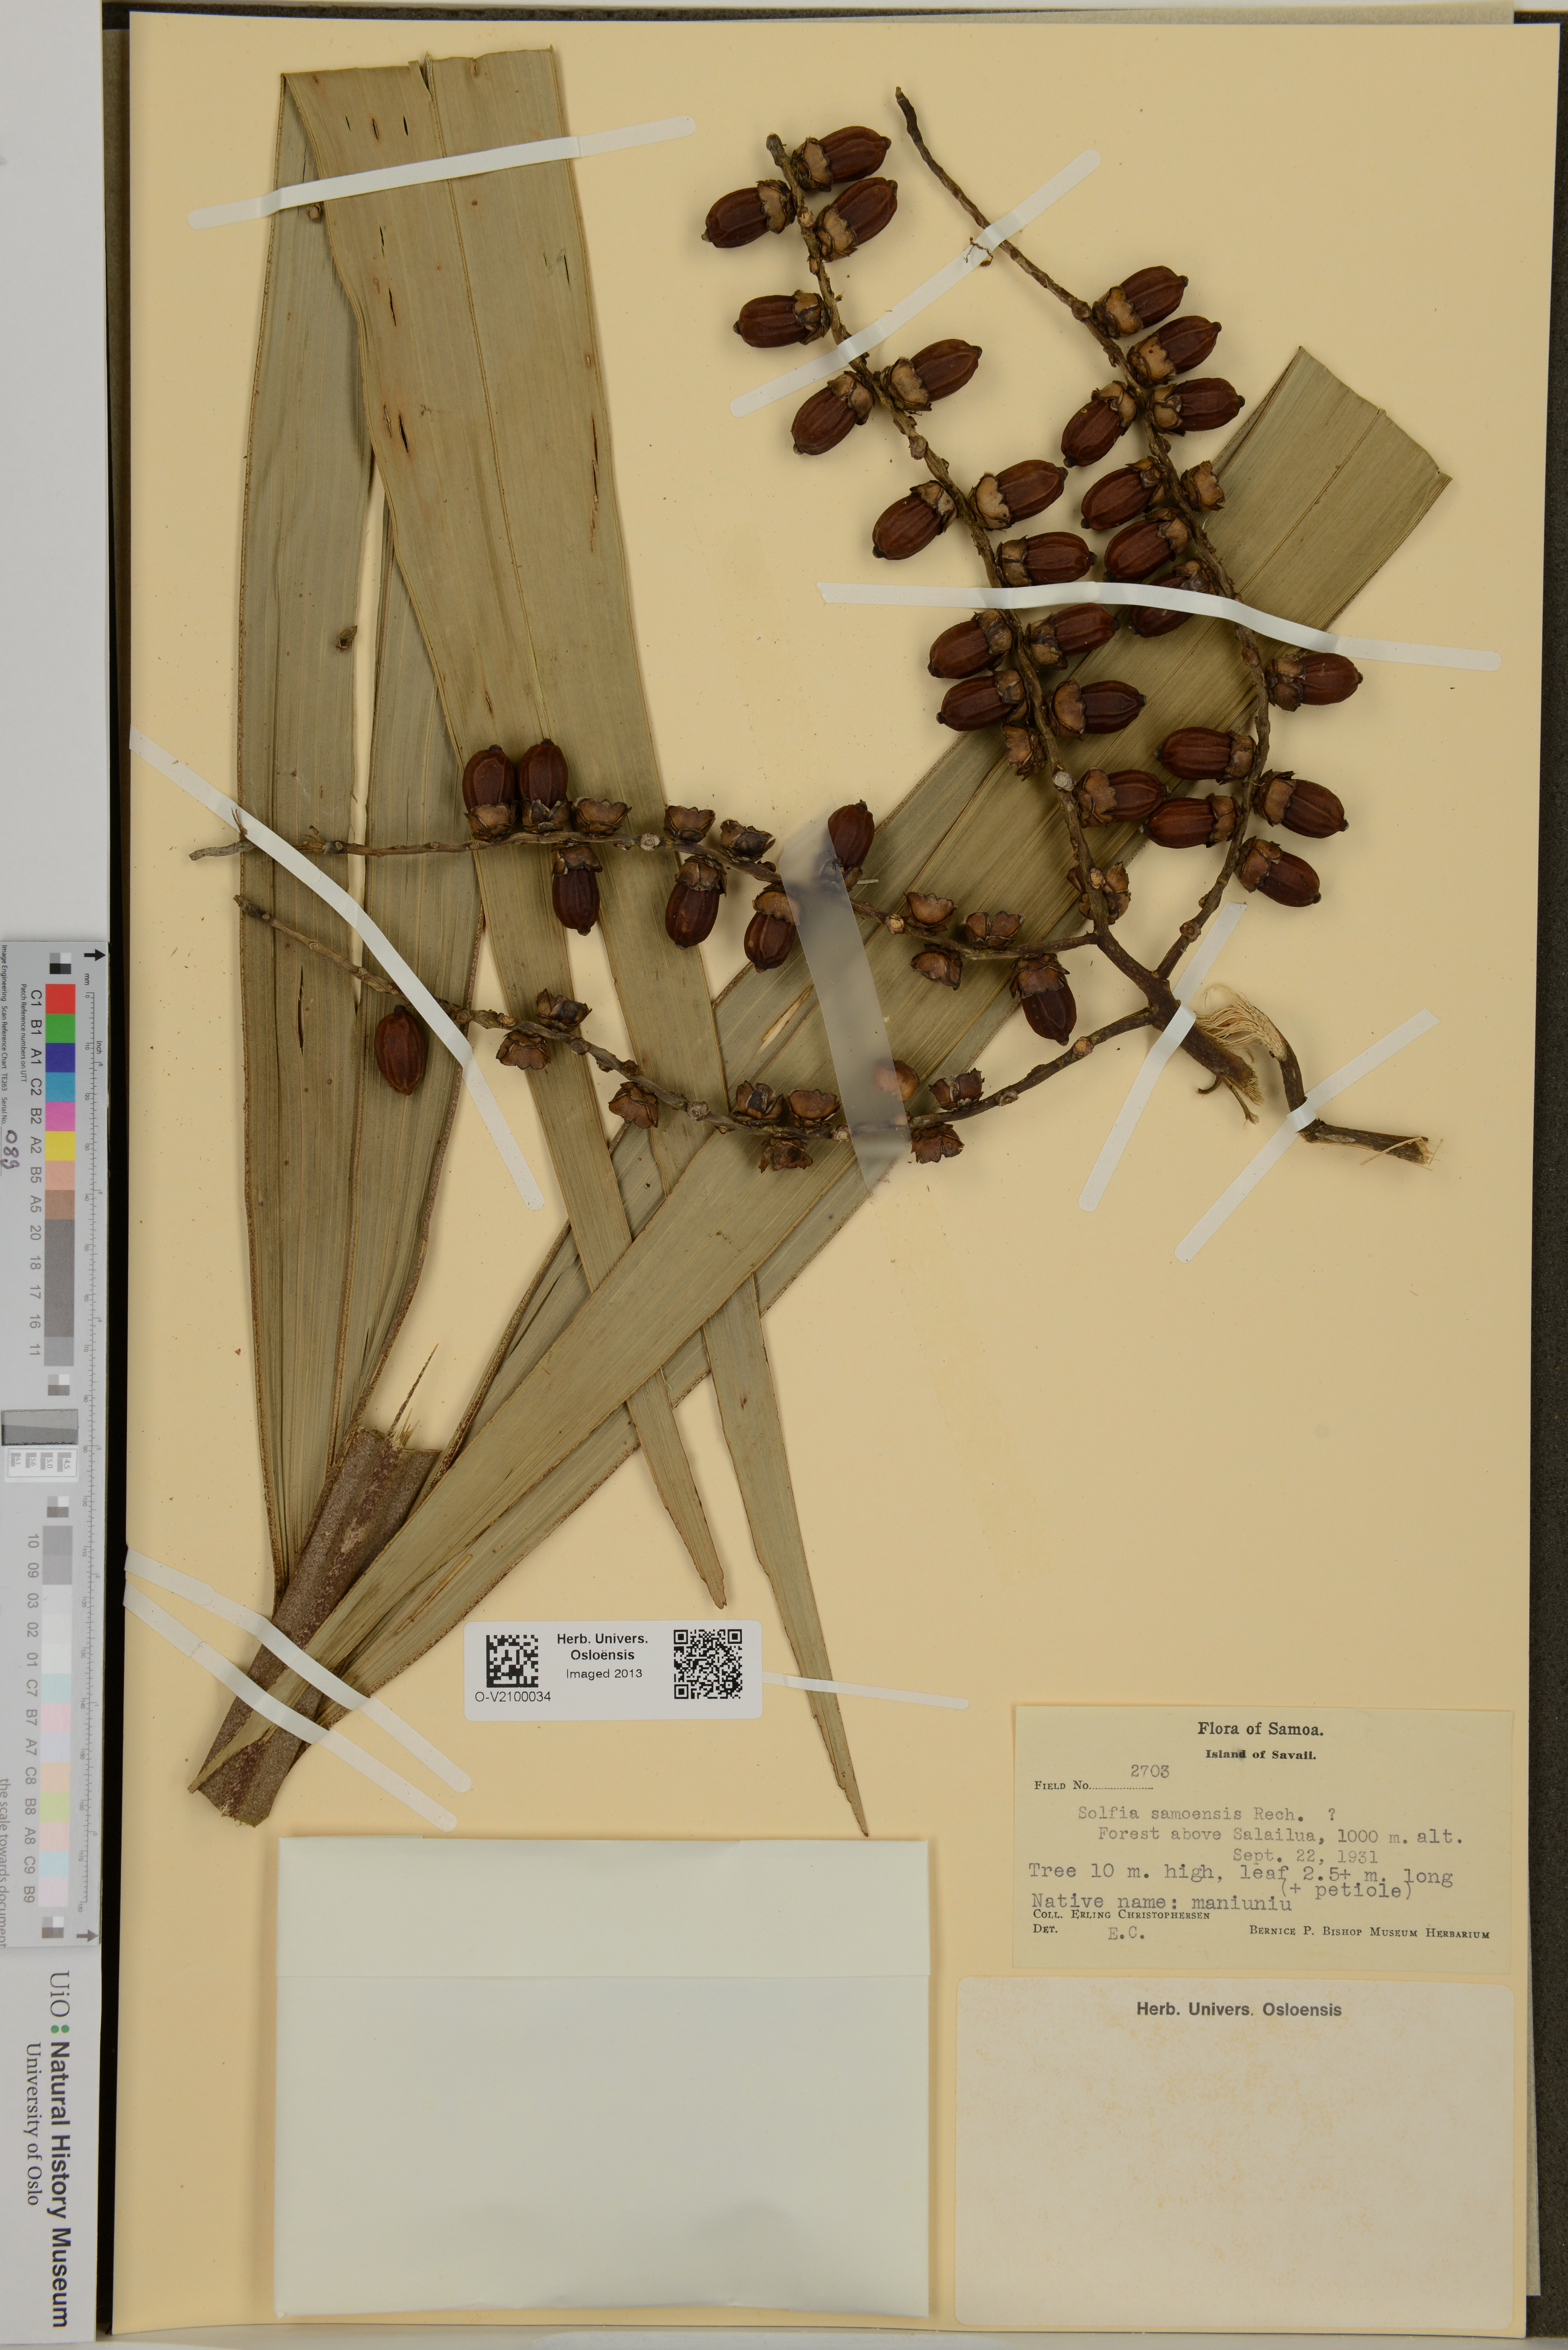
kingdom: Plantae
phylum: Tracheophyta
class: Liliopsida
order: Arecales
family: Arecaceae
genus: Balaka
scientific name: Balaka insularis
